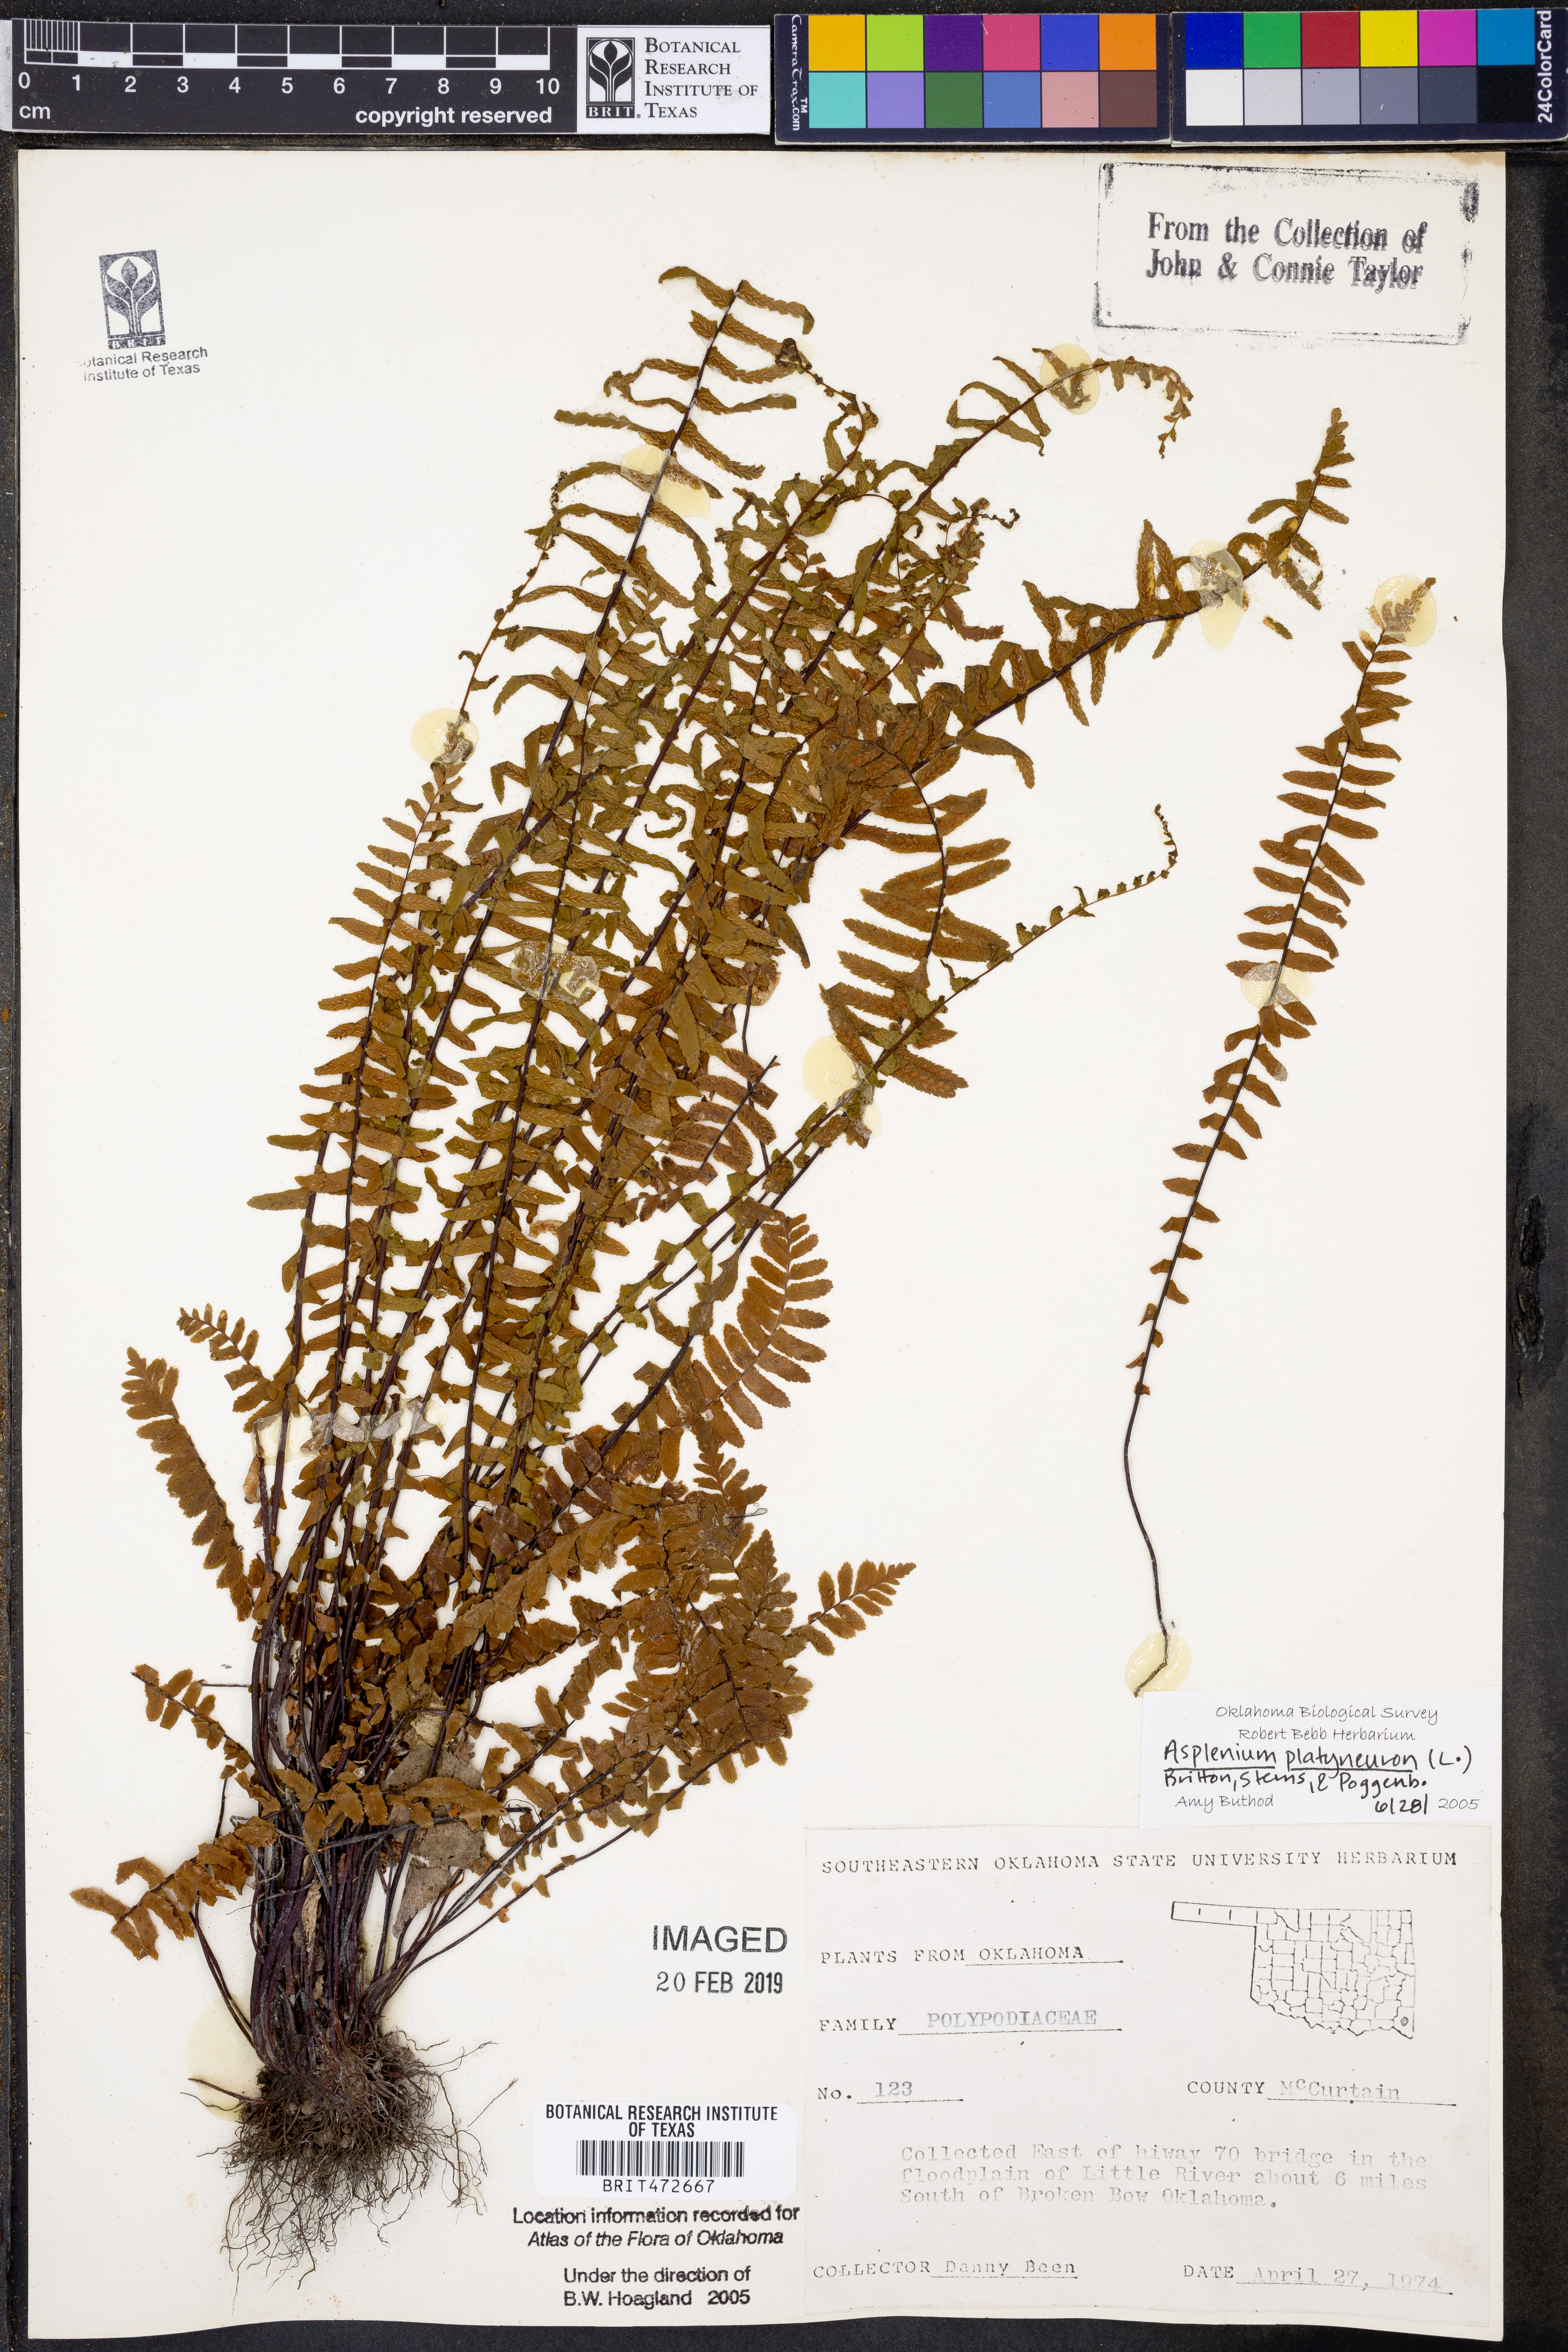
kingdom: Plantae
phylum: Tracheophyta
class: Polypodiopsida
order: Polypodiales
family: Aspleniaceae
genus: Asplenium
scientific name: Asplenium platyneuron
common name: Ebony spleenwort
